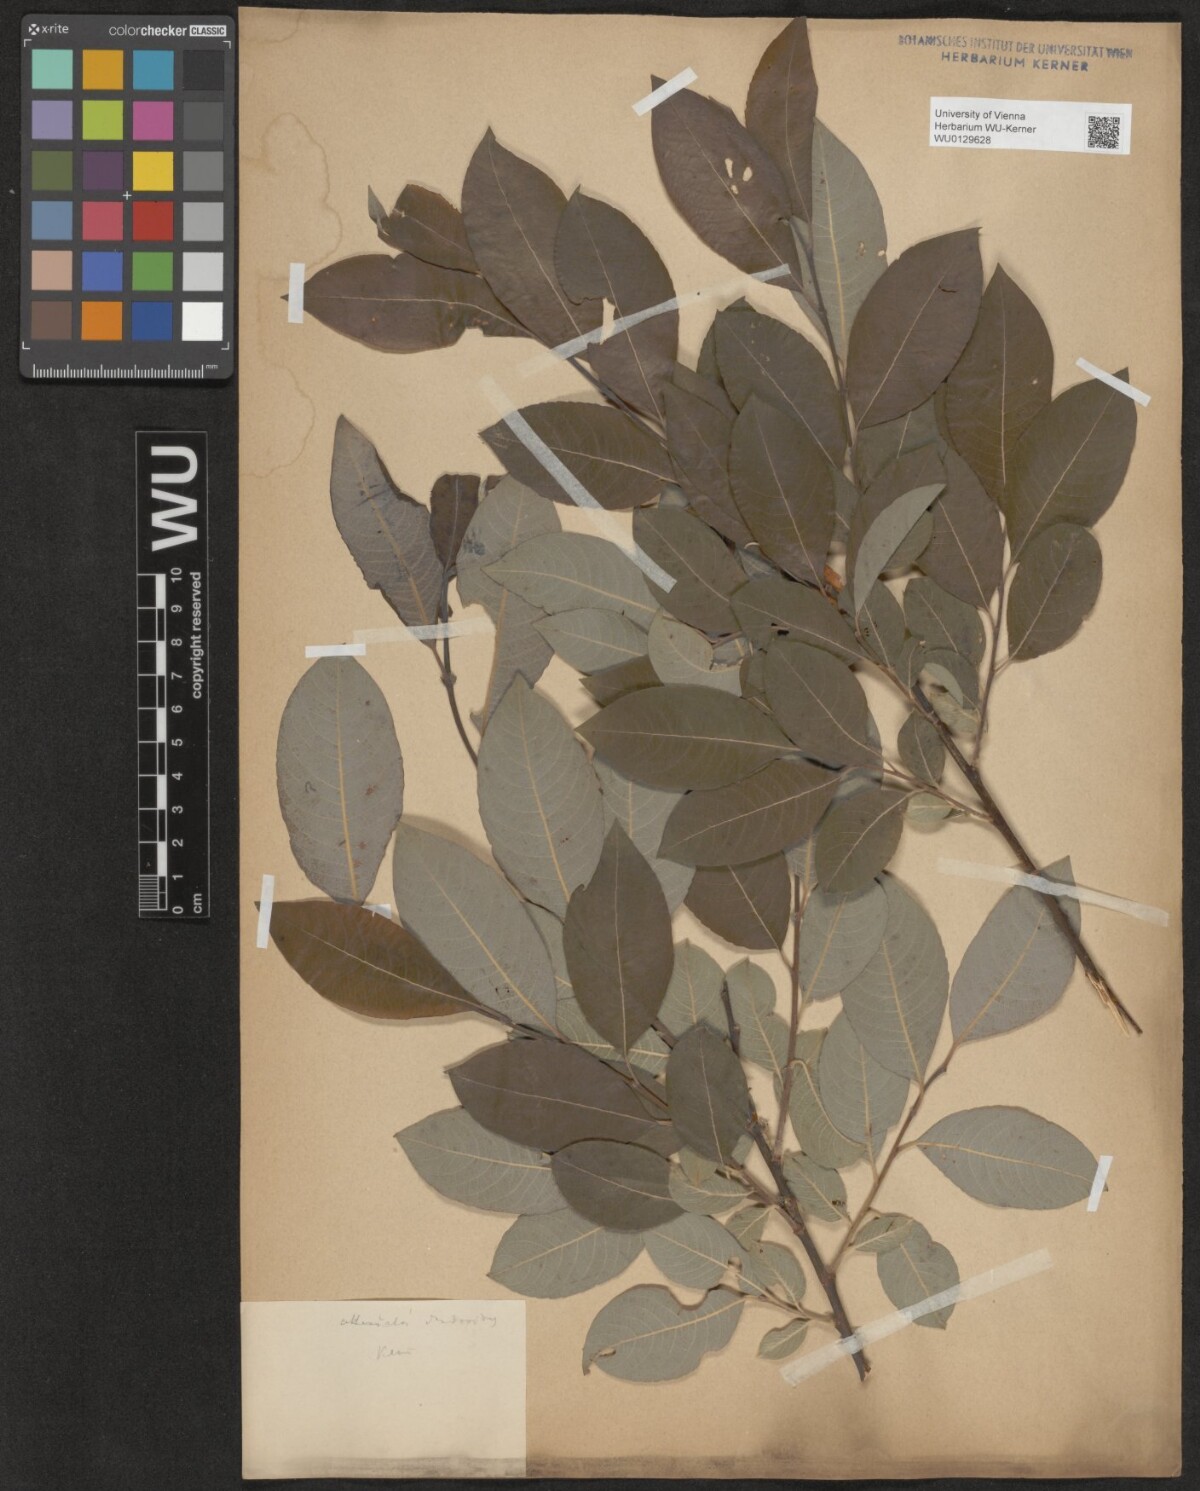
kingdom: Plantae
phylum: Tracheophyta
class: Magnoliopsida
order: Malpighiales
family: Salicaceae
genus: Salix
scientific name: Salix dendroides
